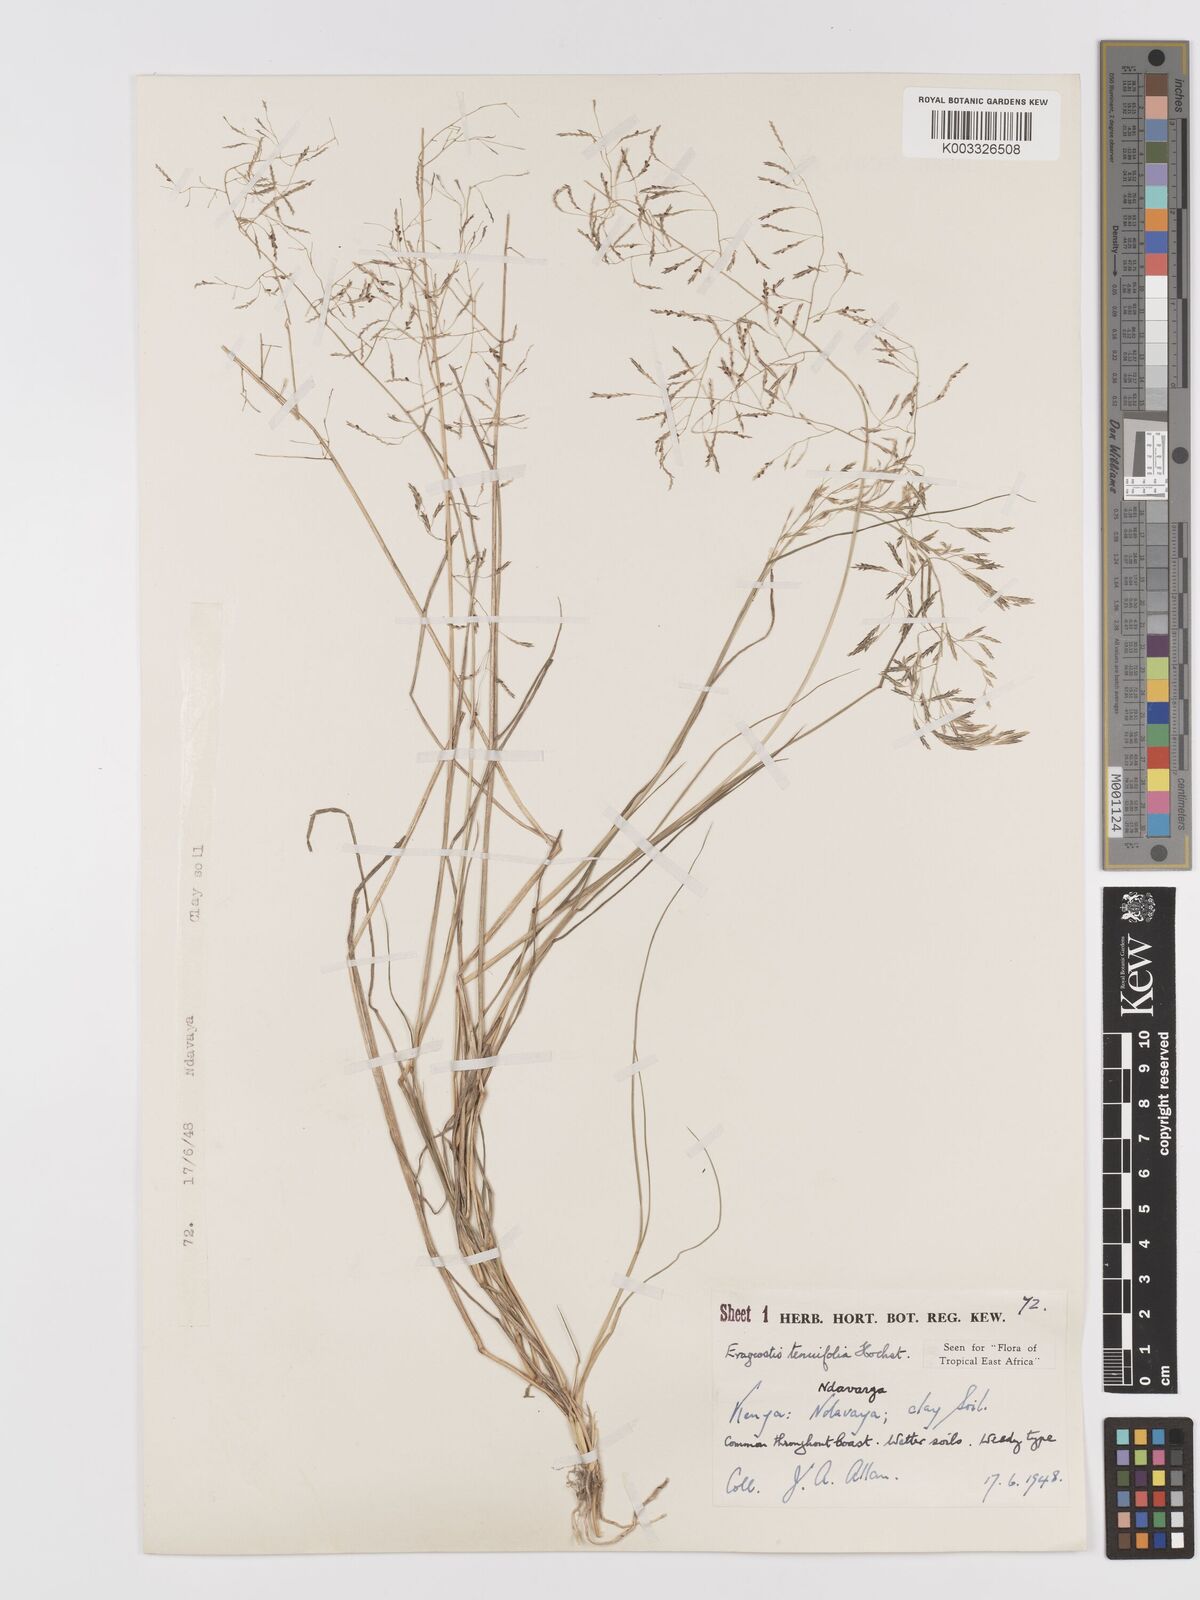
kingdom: Plantae
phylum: Tracheophyta
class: Liliopsida
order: Poales
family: Poaceae
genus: Eragrostis
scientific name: Eragrostis tenuifolia
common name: Elastic grass
